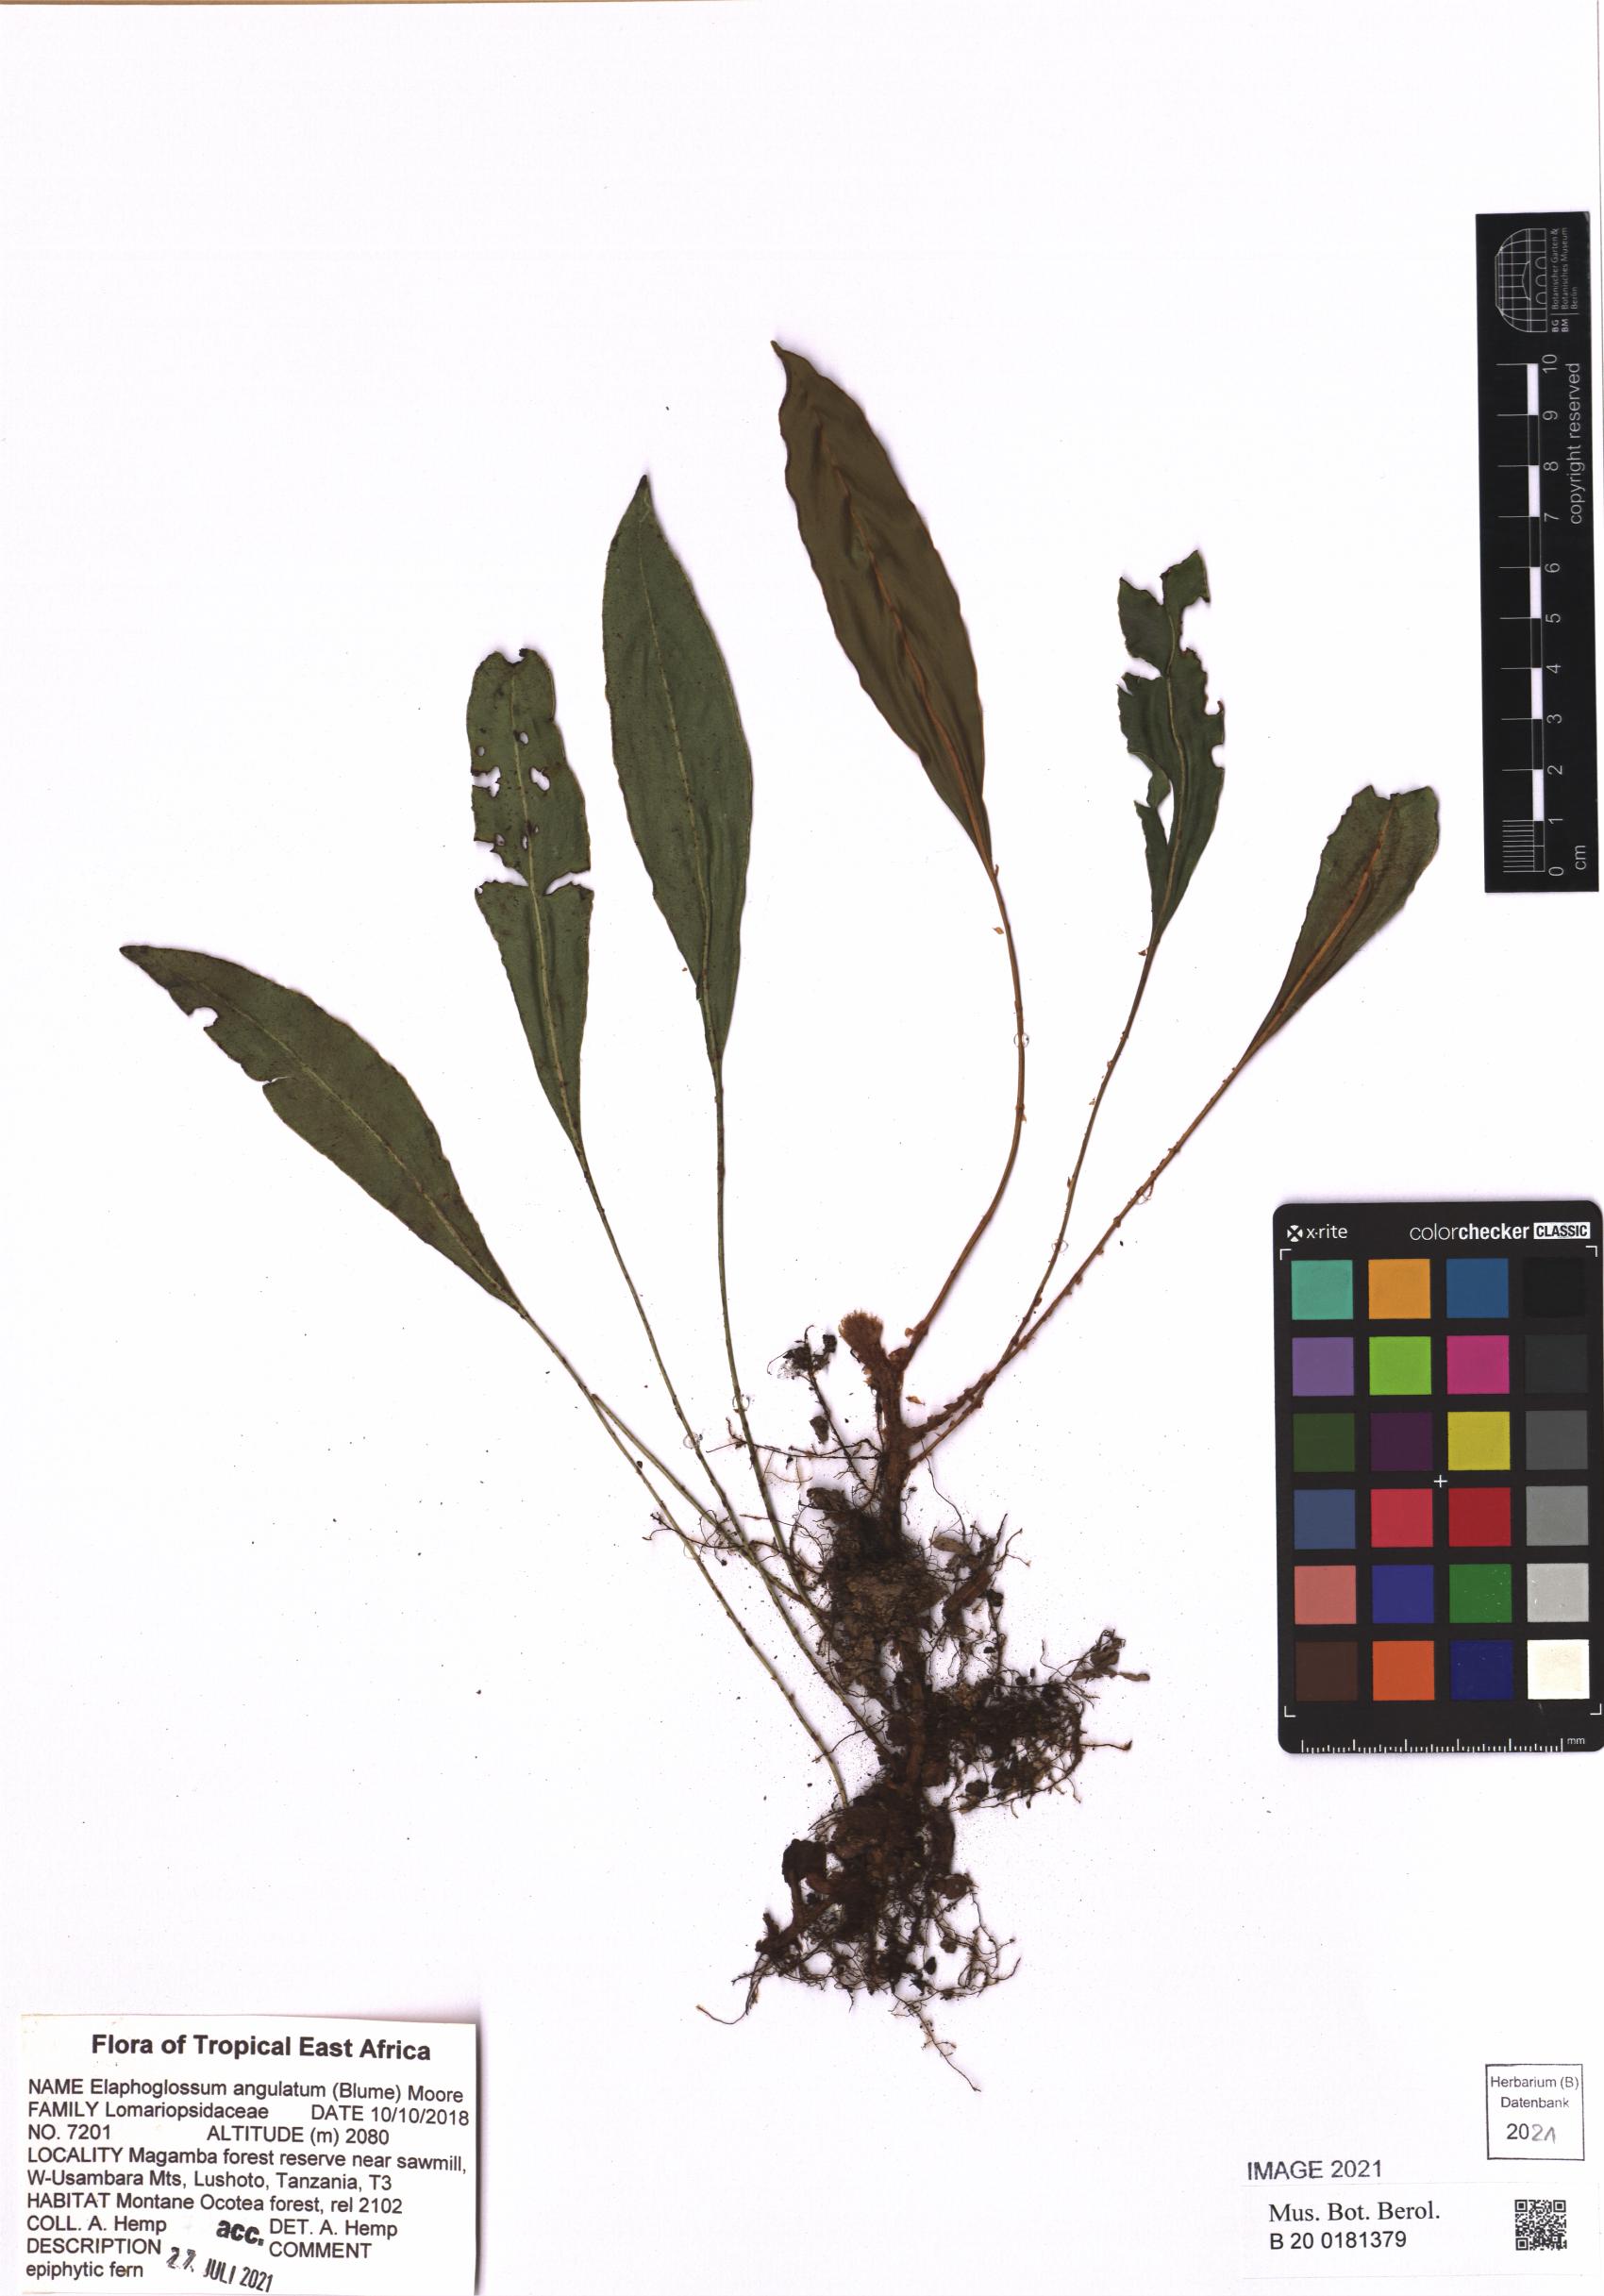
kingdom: Plantae
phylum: Tracheophyta
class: Polypodiopsida
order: Polypodiales
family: Dryopteridaceae
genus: Elaphoglossum
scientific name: Elaphoglossum angulatum
